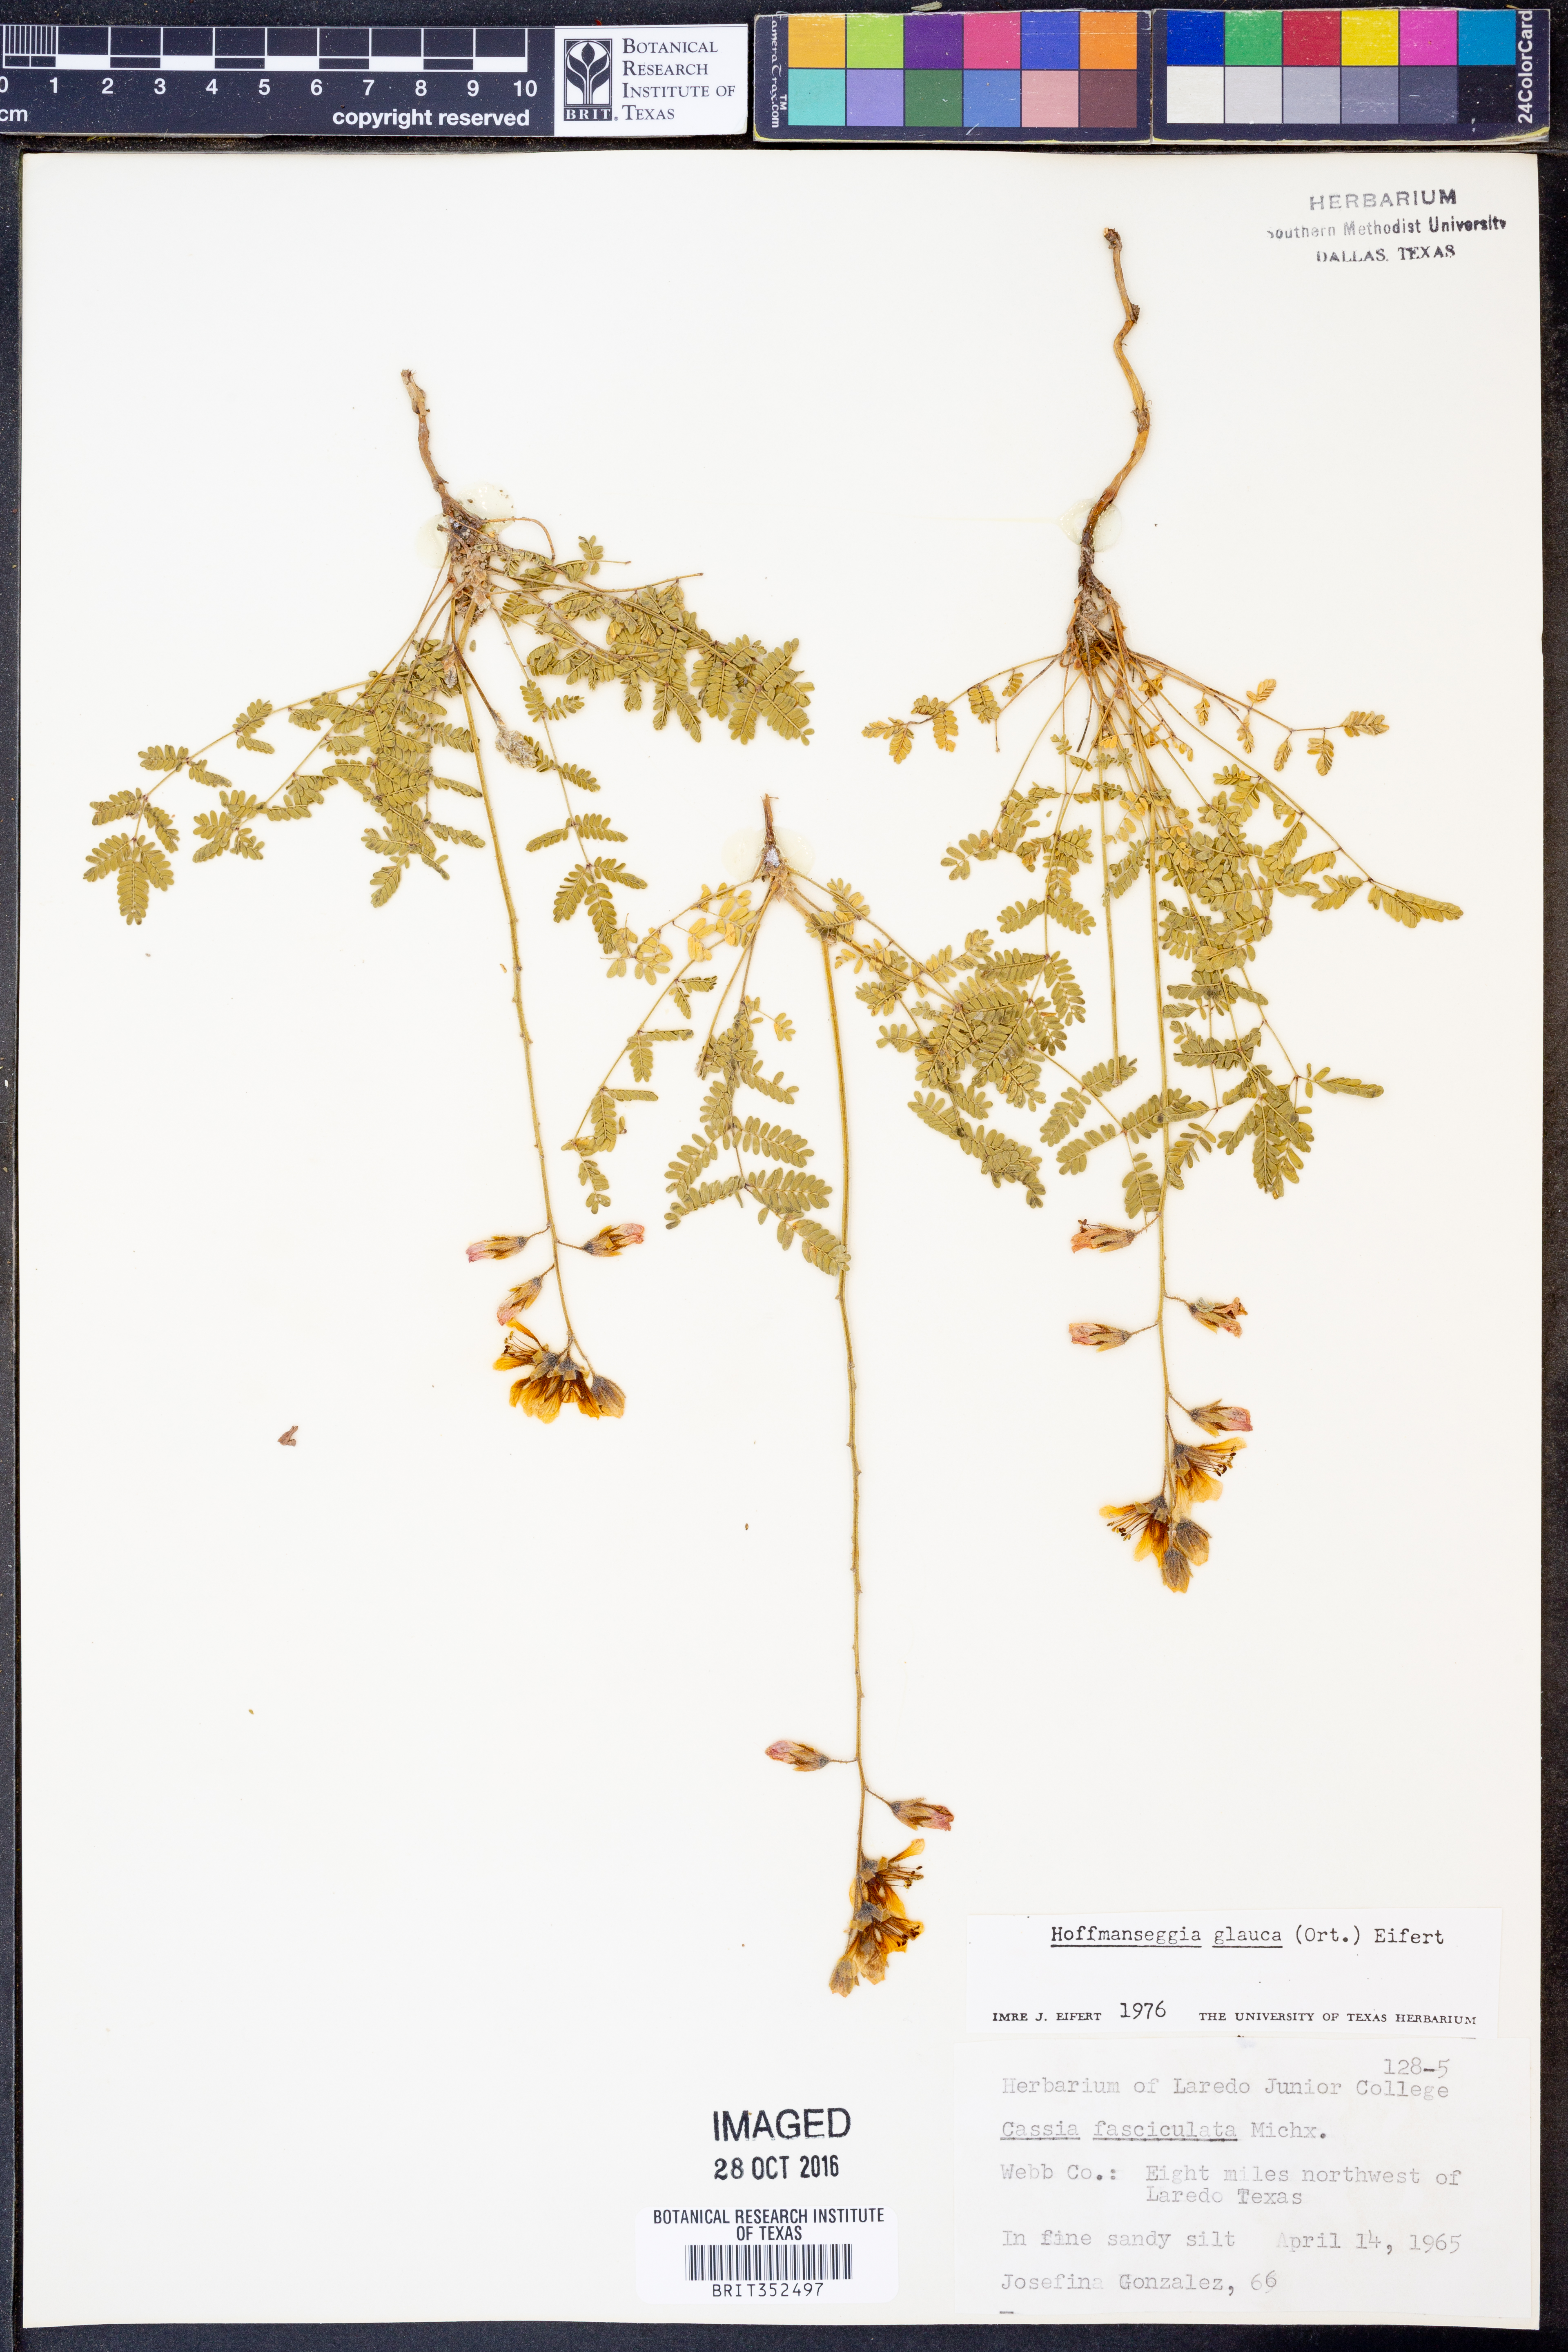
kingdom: Plantae
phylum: Tracheophyta
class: Magnoliopsida
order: Fabales
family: Fabaceae
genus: Hoffmannseggia
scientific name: Hoffmannseggia glauca
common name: Pignut
